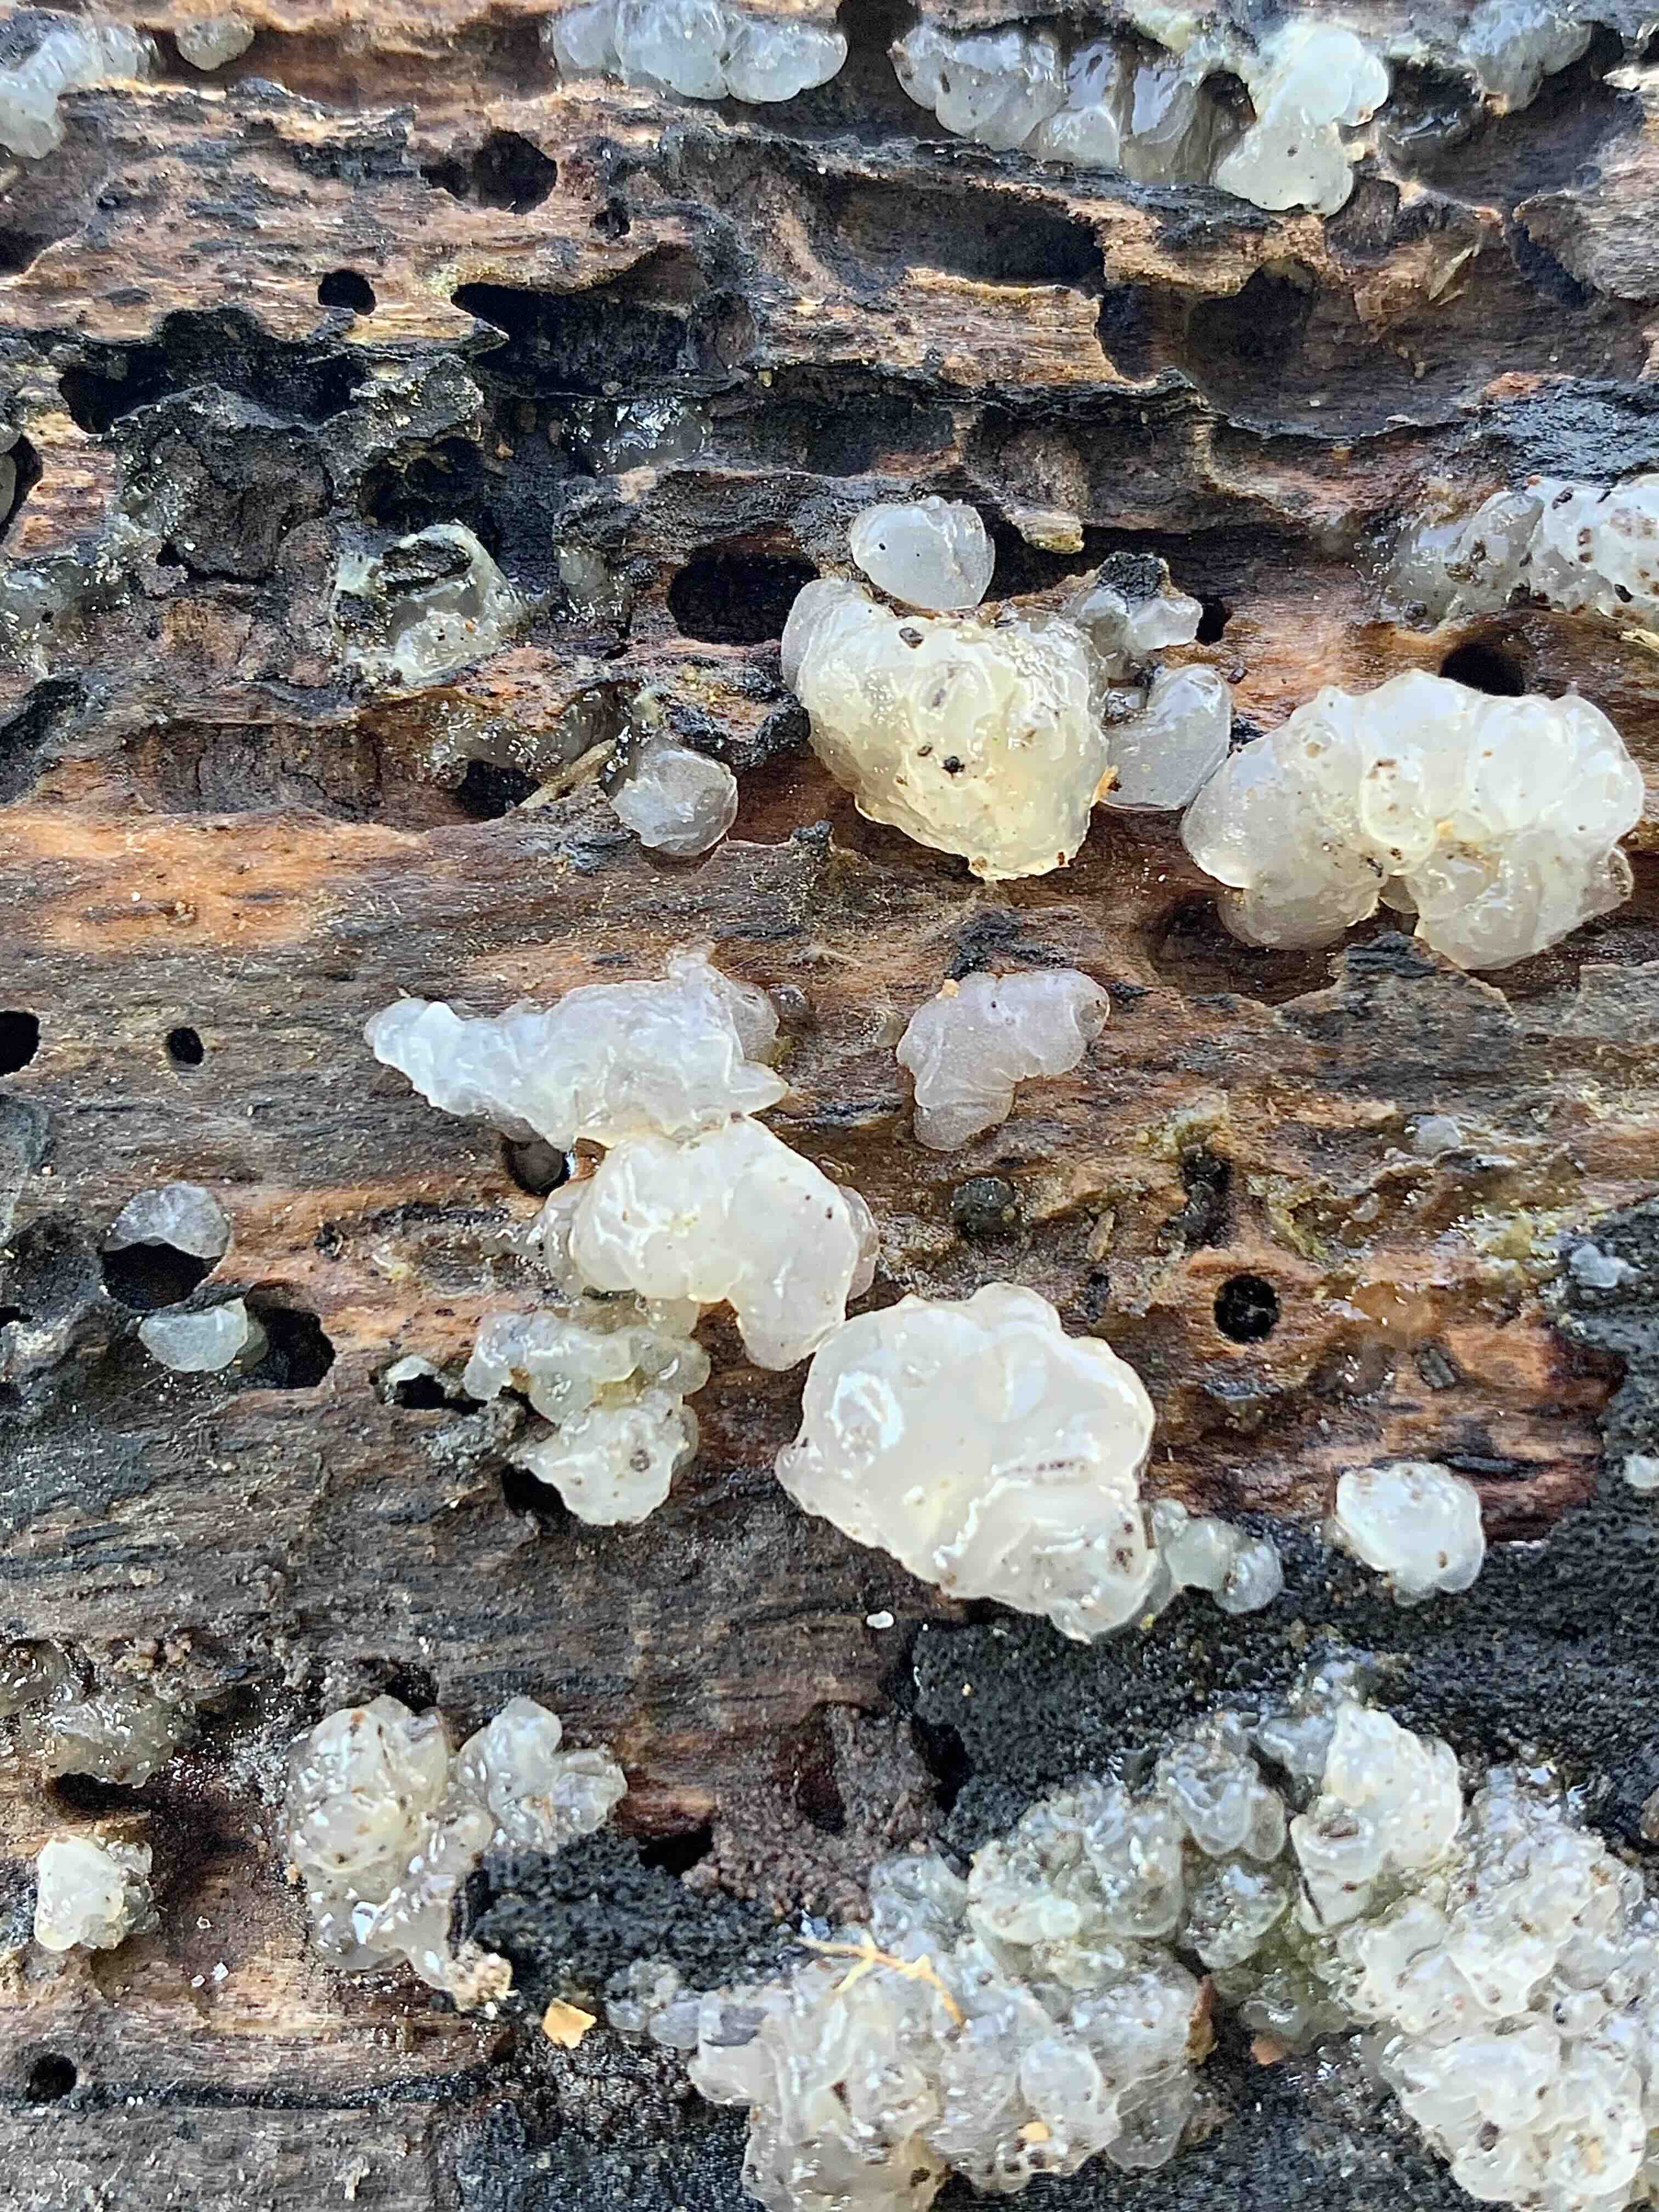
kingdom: Fungi
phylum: Basidiomycota
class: Agaricomycetes
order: Auriculariales
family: Hyaloriaceae
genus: Myxarium
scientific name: Myxarium nucleatum
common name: klar bævretop
